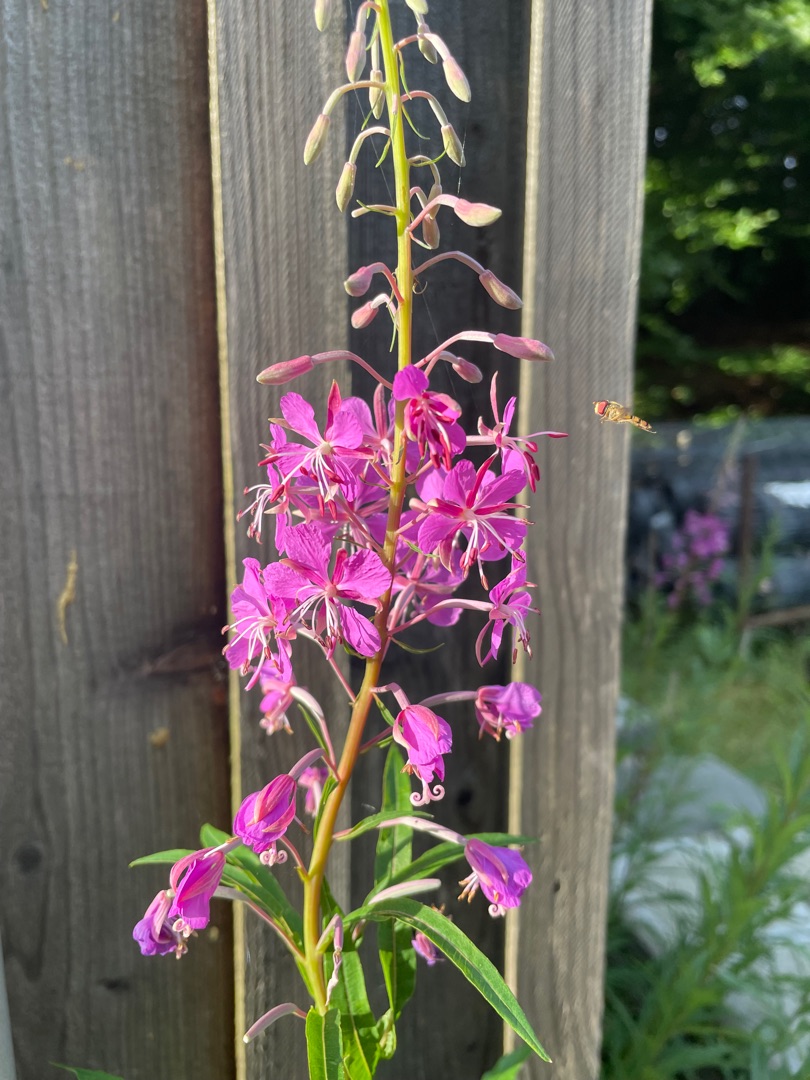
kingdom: Plantae
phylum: Tracheophyta
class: Magnoliopsida
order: Myrtales
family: Onagraceae
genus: Chamaenerion
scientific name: Chamaenerion angustifolium
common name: Gederams
